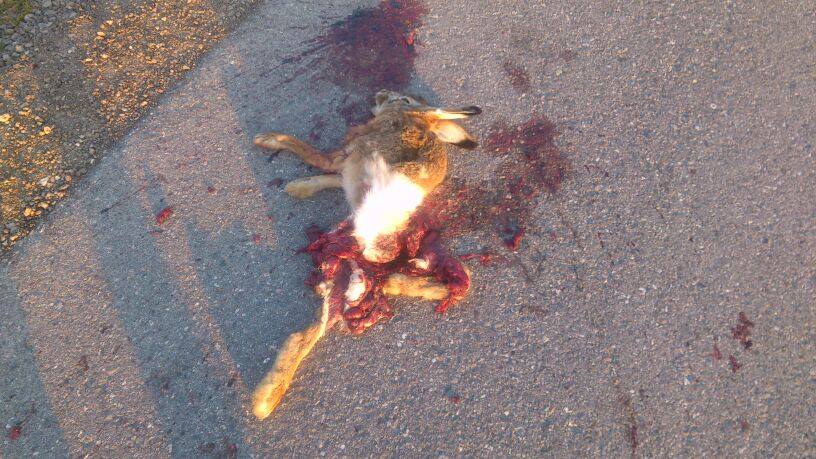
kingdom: Animalia
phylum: Chordata
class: Mammalia
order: Lagomorpha
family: Leporidae
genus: Lepus
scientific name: Lepus europaeus
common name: European hare
